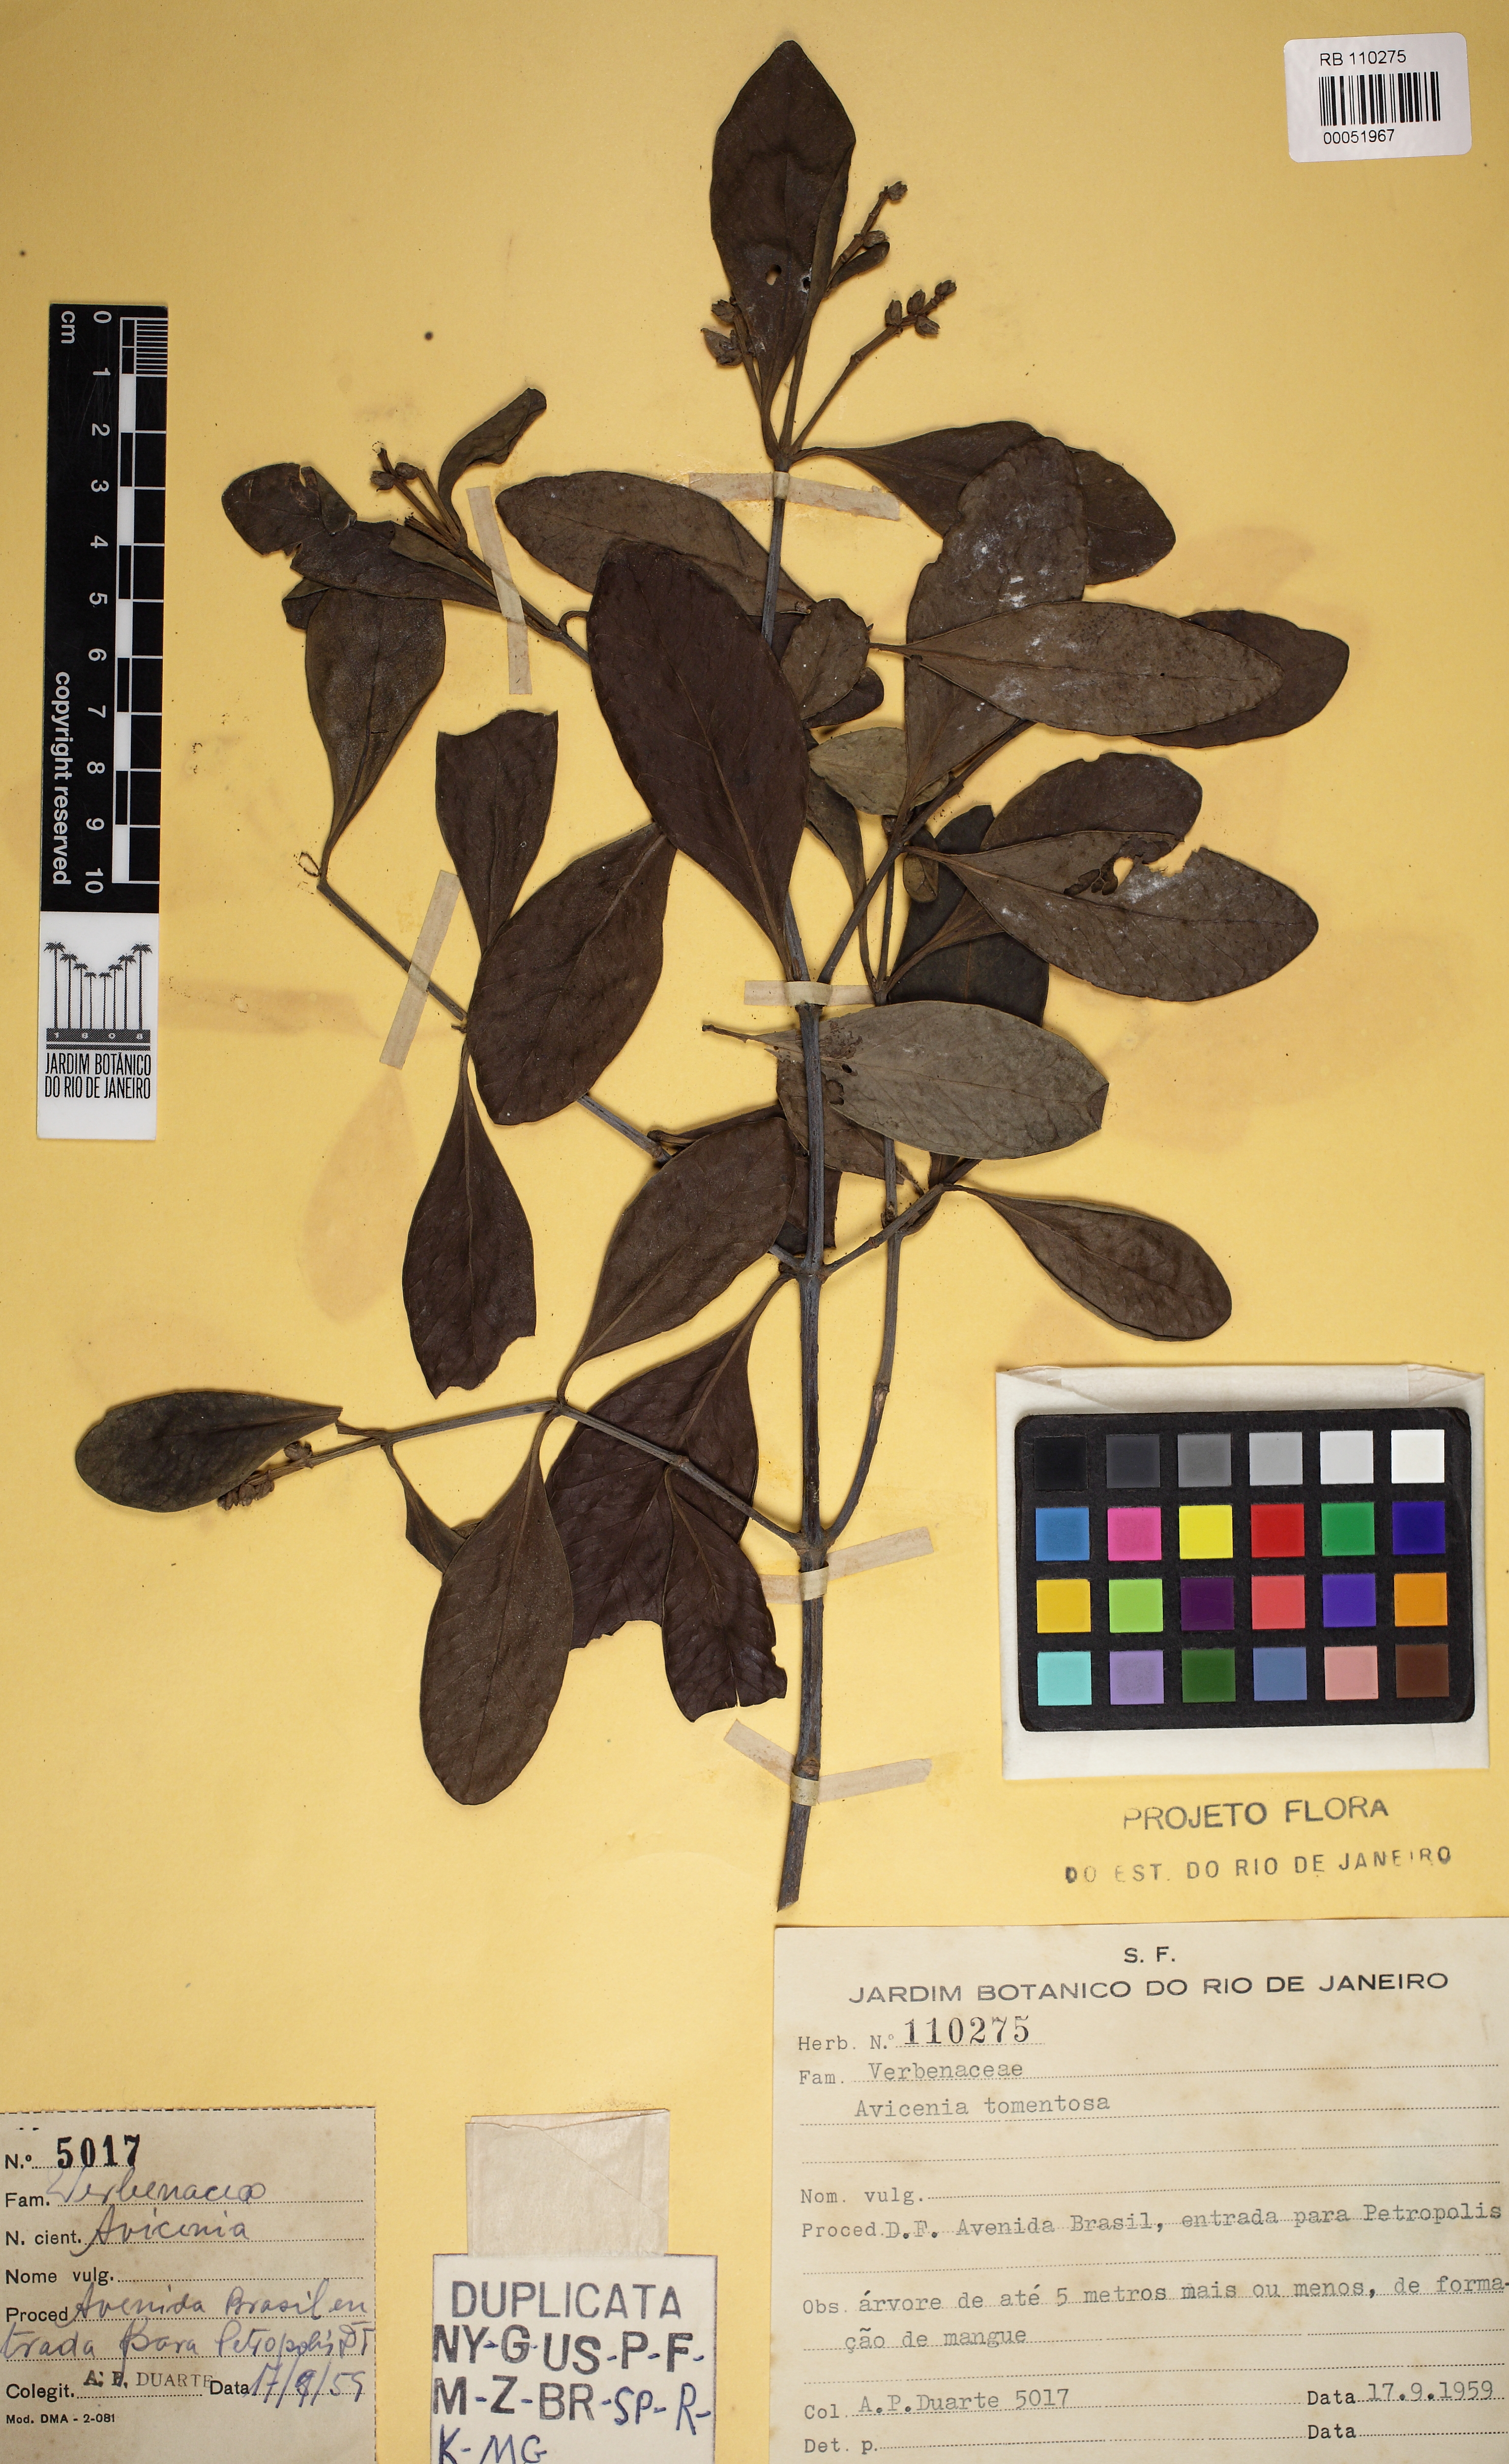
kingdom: Plantae
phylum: Tracheophyta
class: Magnoliopsida
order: Lamiales
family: Acanthaceae
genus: Avicennia
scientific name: Avicennia germinans
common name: Black mangrove
